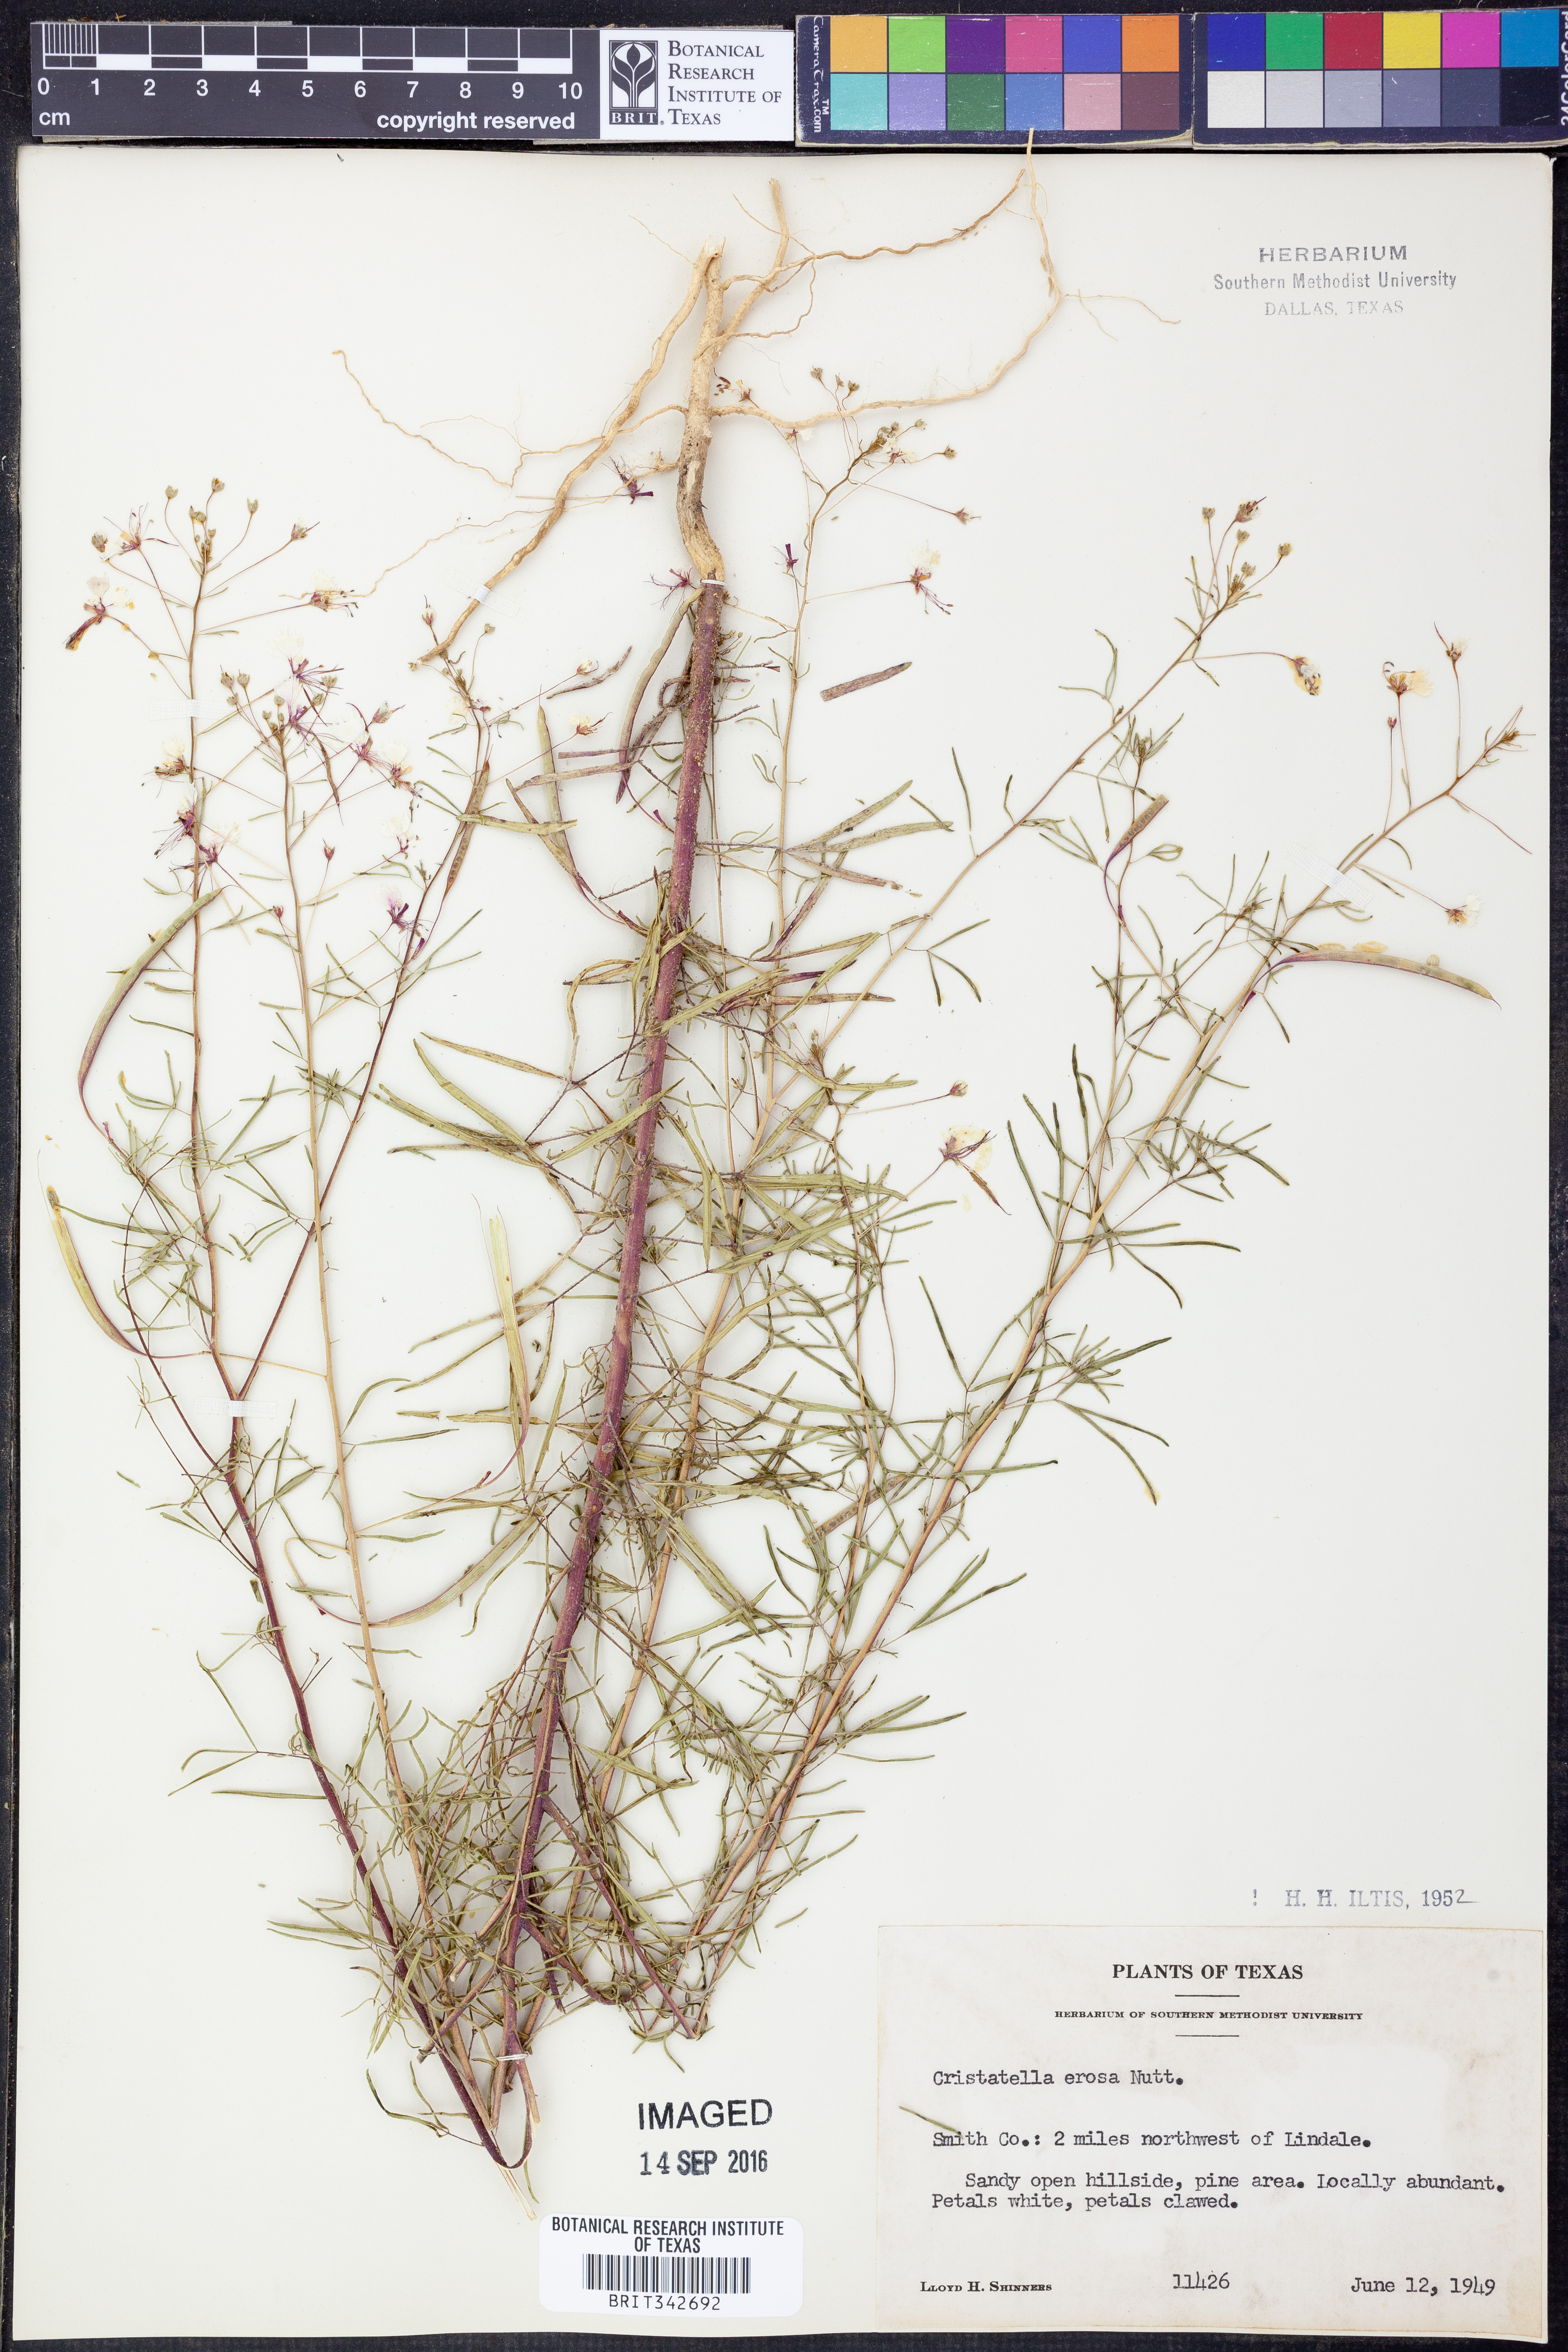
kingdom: Plantae
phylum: Tracheophyta
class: Magnoliopsida
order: Brassicales
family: Cleomaceae
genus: Polanisia
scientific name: Polanisia erosa
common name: Large clammyweed
